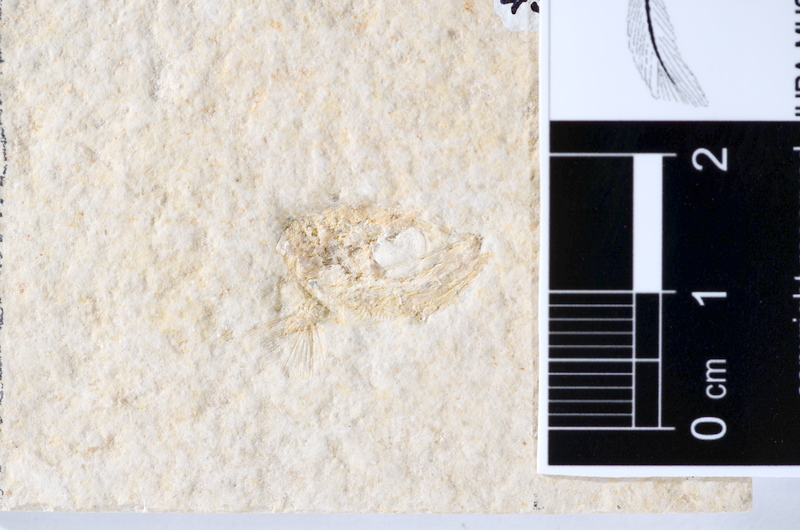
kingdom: Animalia
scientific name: Animalia
